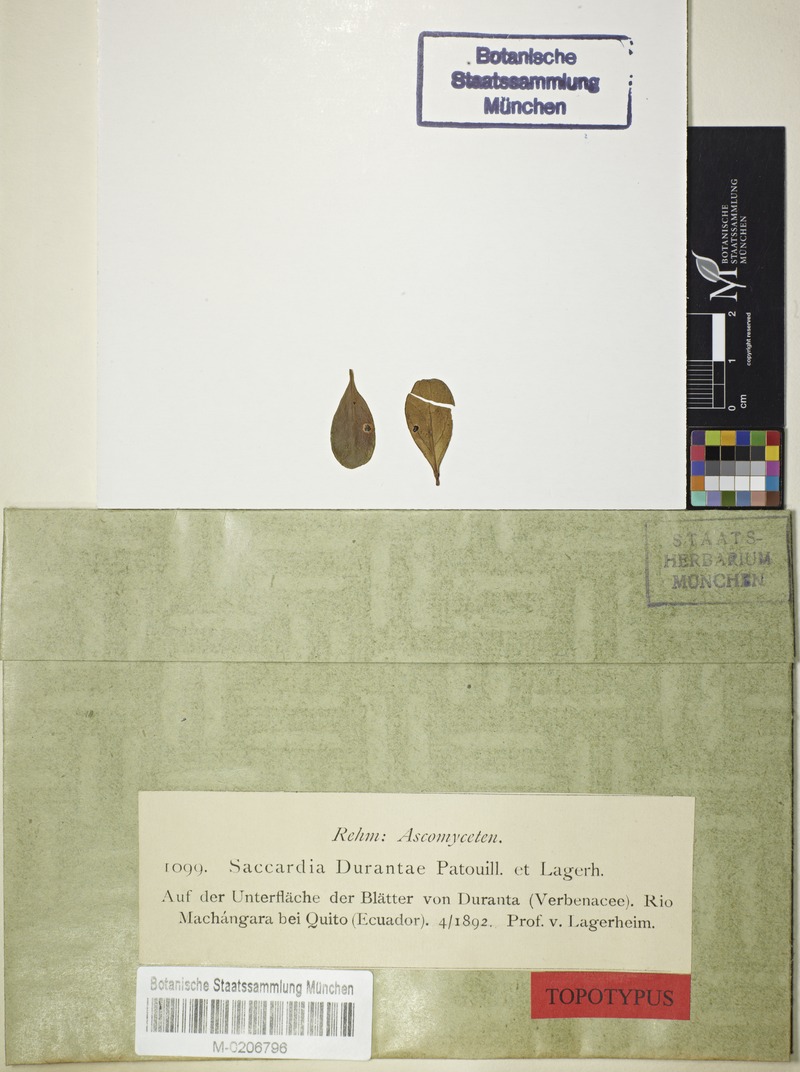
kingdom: Fungi
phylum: Ascomycota
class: Sordariomycetes
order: Hypocreales
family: Clavicipitaceae
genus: Moelleriella
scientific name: Moelleriella durantae
